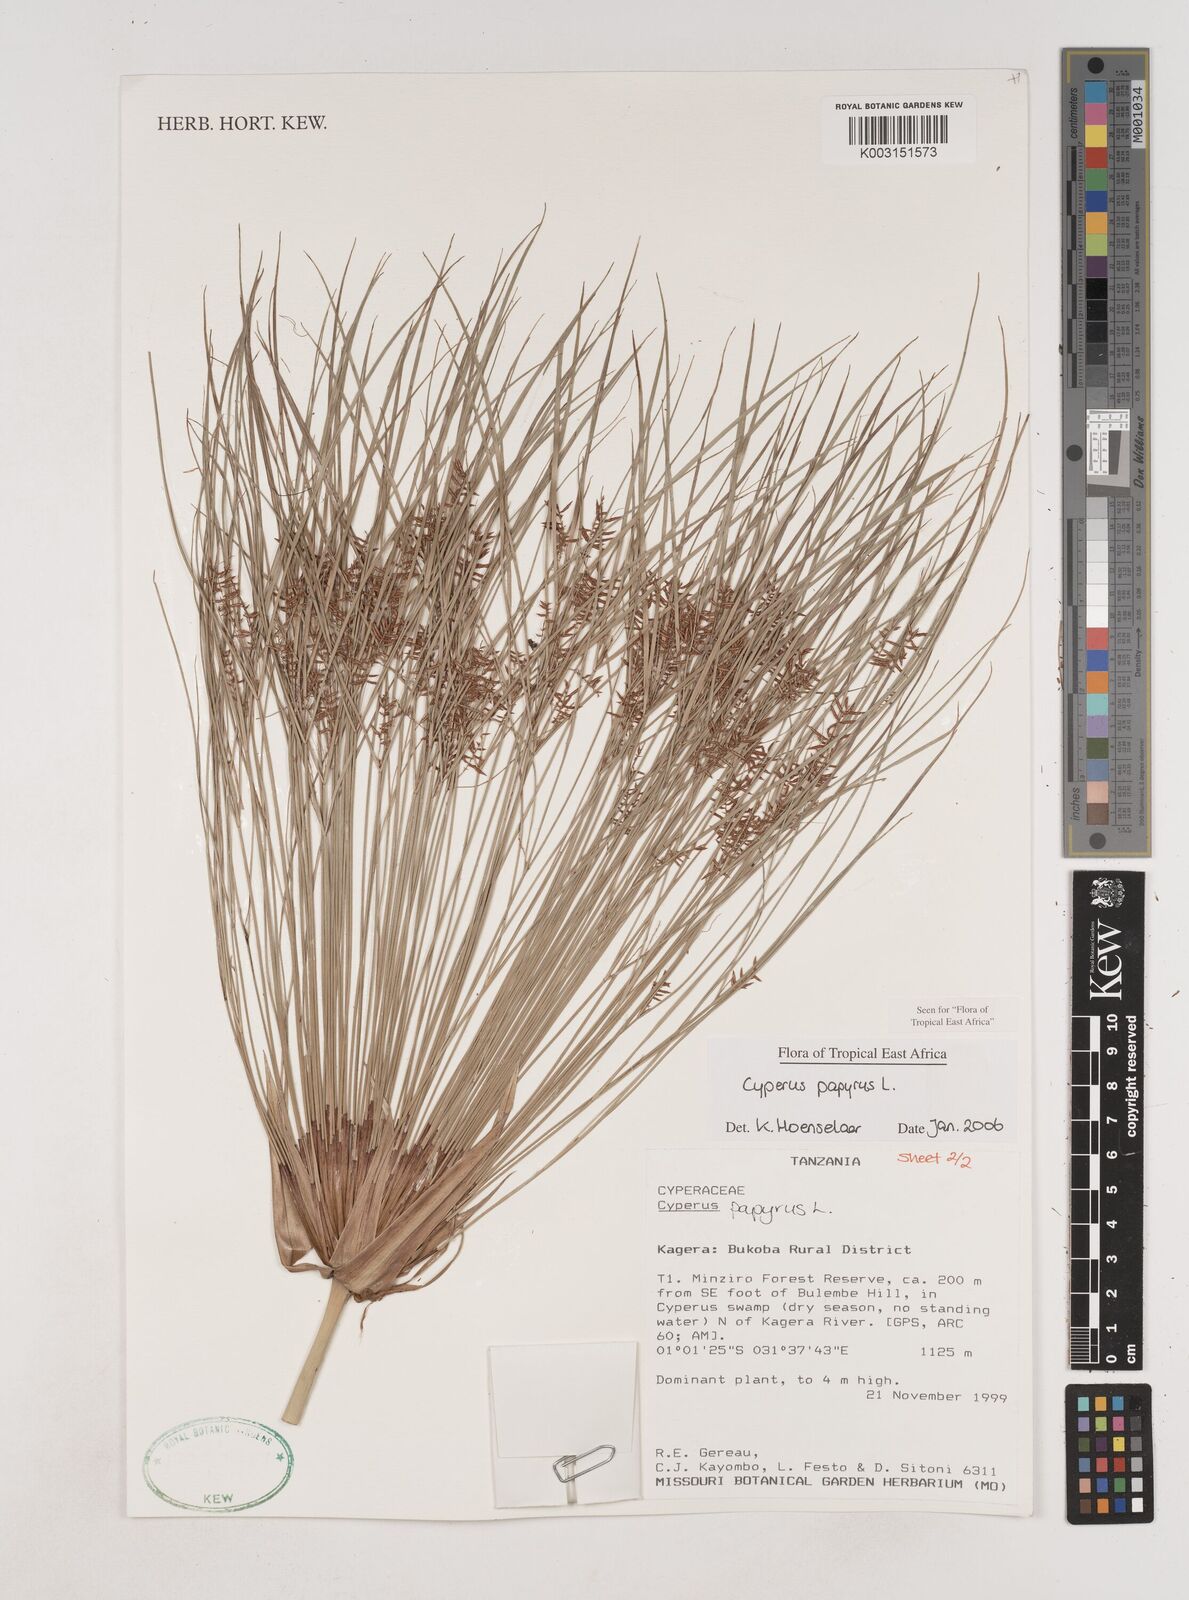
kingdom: Plantae
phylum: Tracheophyta
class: Liliopsida
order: Poales
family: Cyperaceae
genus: Cyperus
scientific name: Cyperus papyrus
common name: Papyrus
